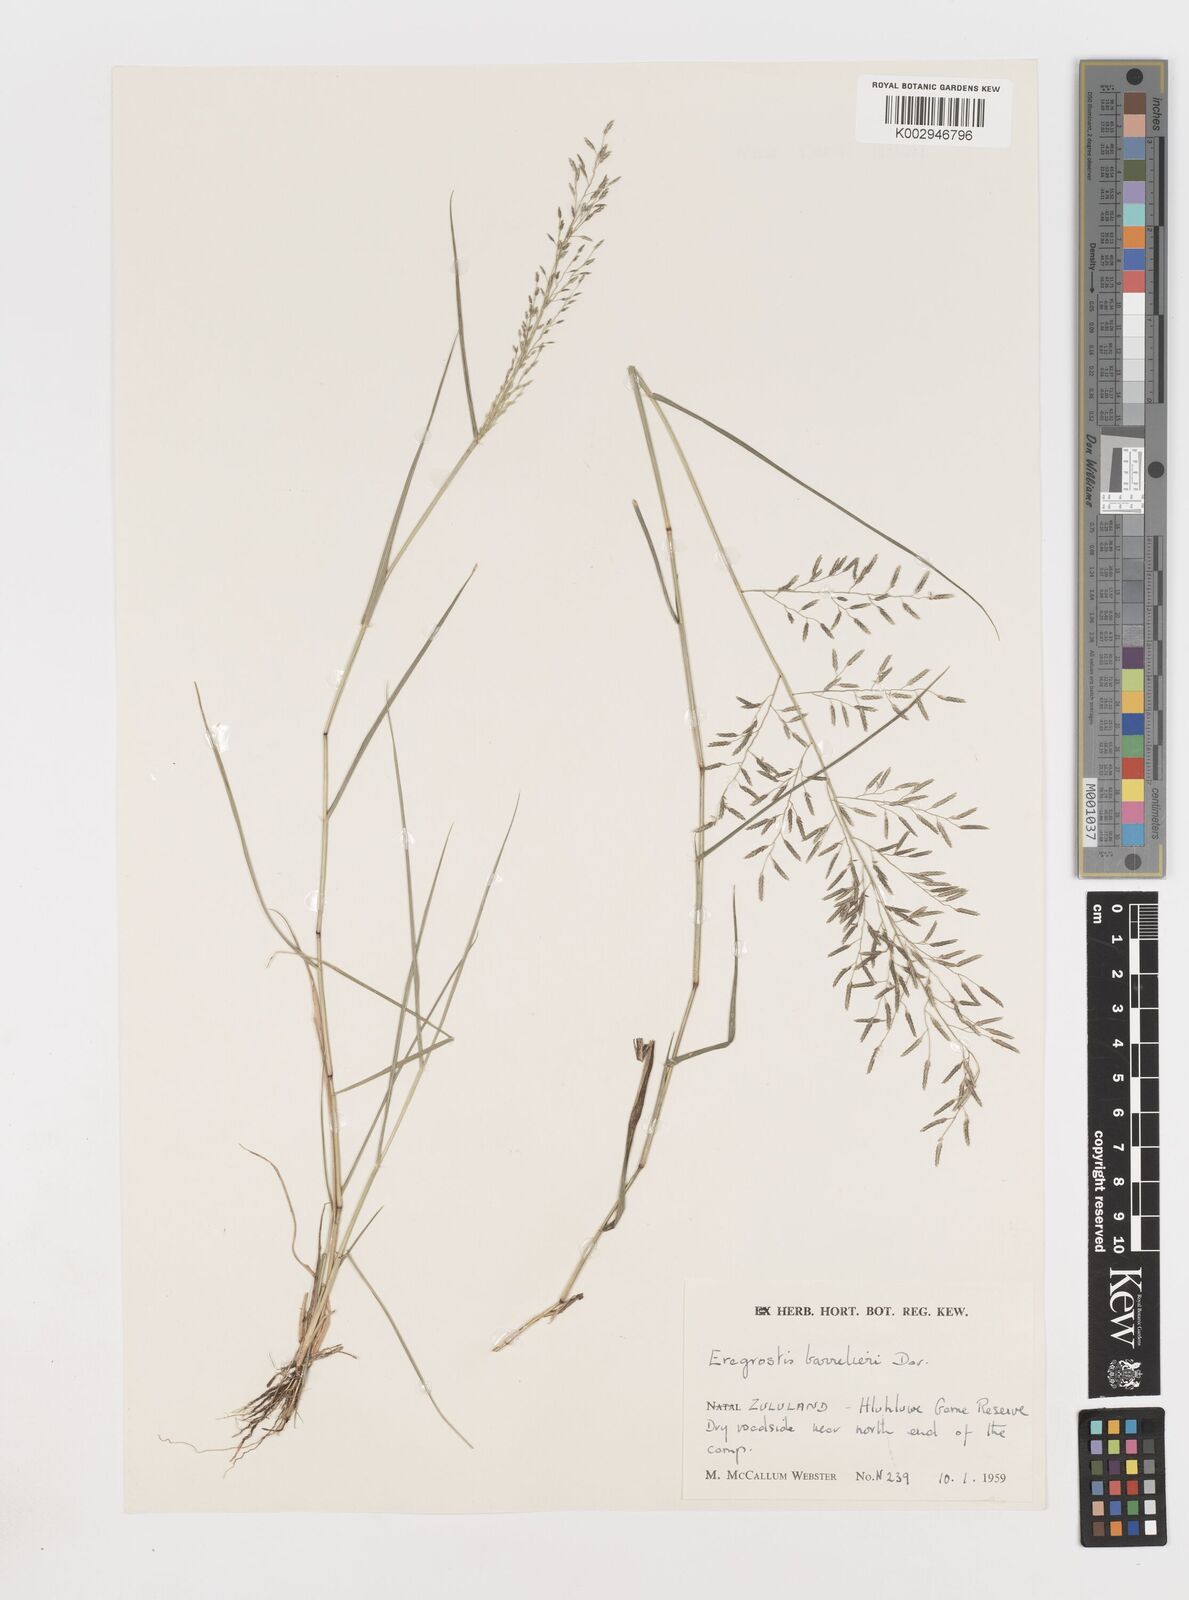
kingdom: Plantae
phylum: Tracheophyta
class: Liliopsida
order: Poales
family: Poaceae
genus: Eragrostis
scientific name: Eragrostis barrelieri
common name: Mediterranean lovegrass
